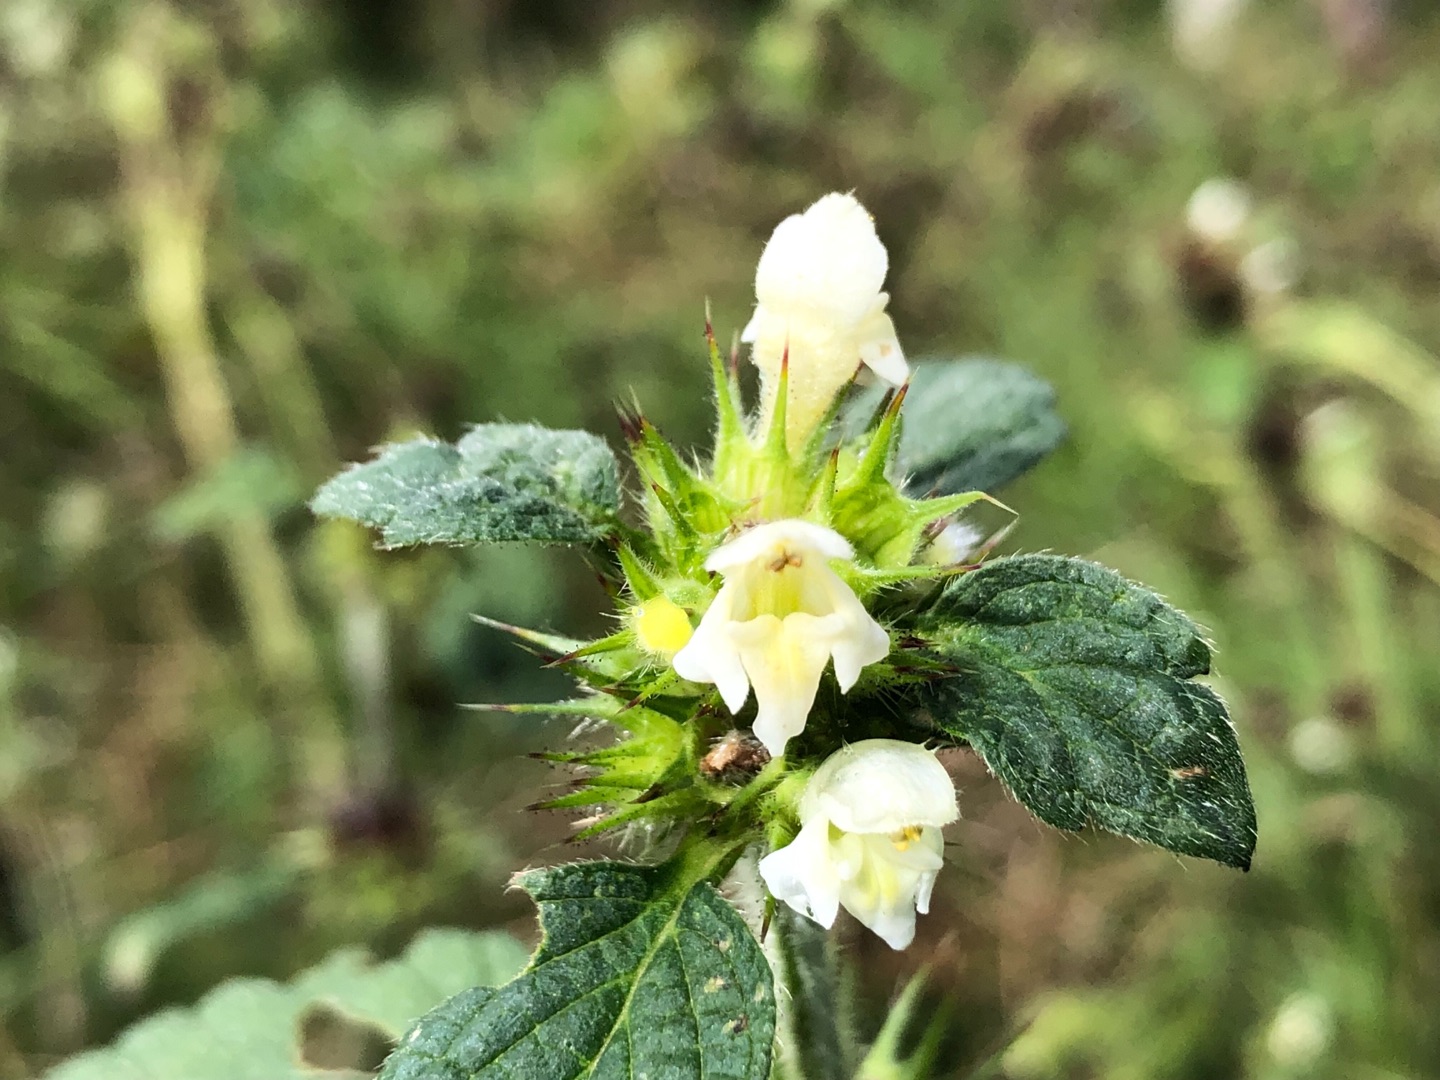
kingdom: Plantae
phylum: Tracheophyta
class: Magnoliopsida
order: Lamiales
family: Lamiaceae
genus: Galeopsis
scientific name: Galeopsis tetrahit
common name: Almindelig hanekro
